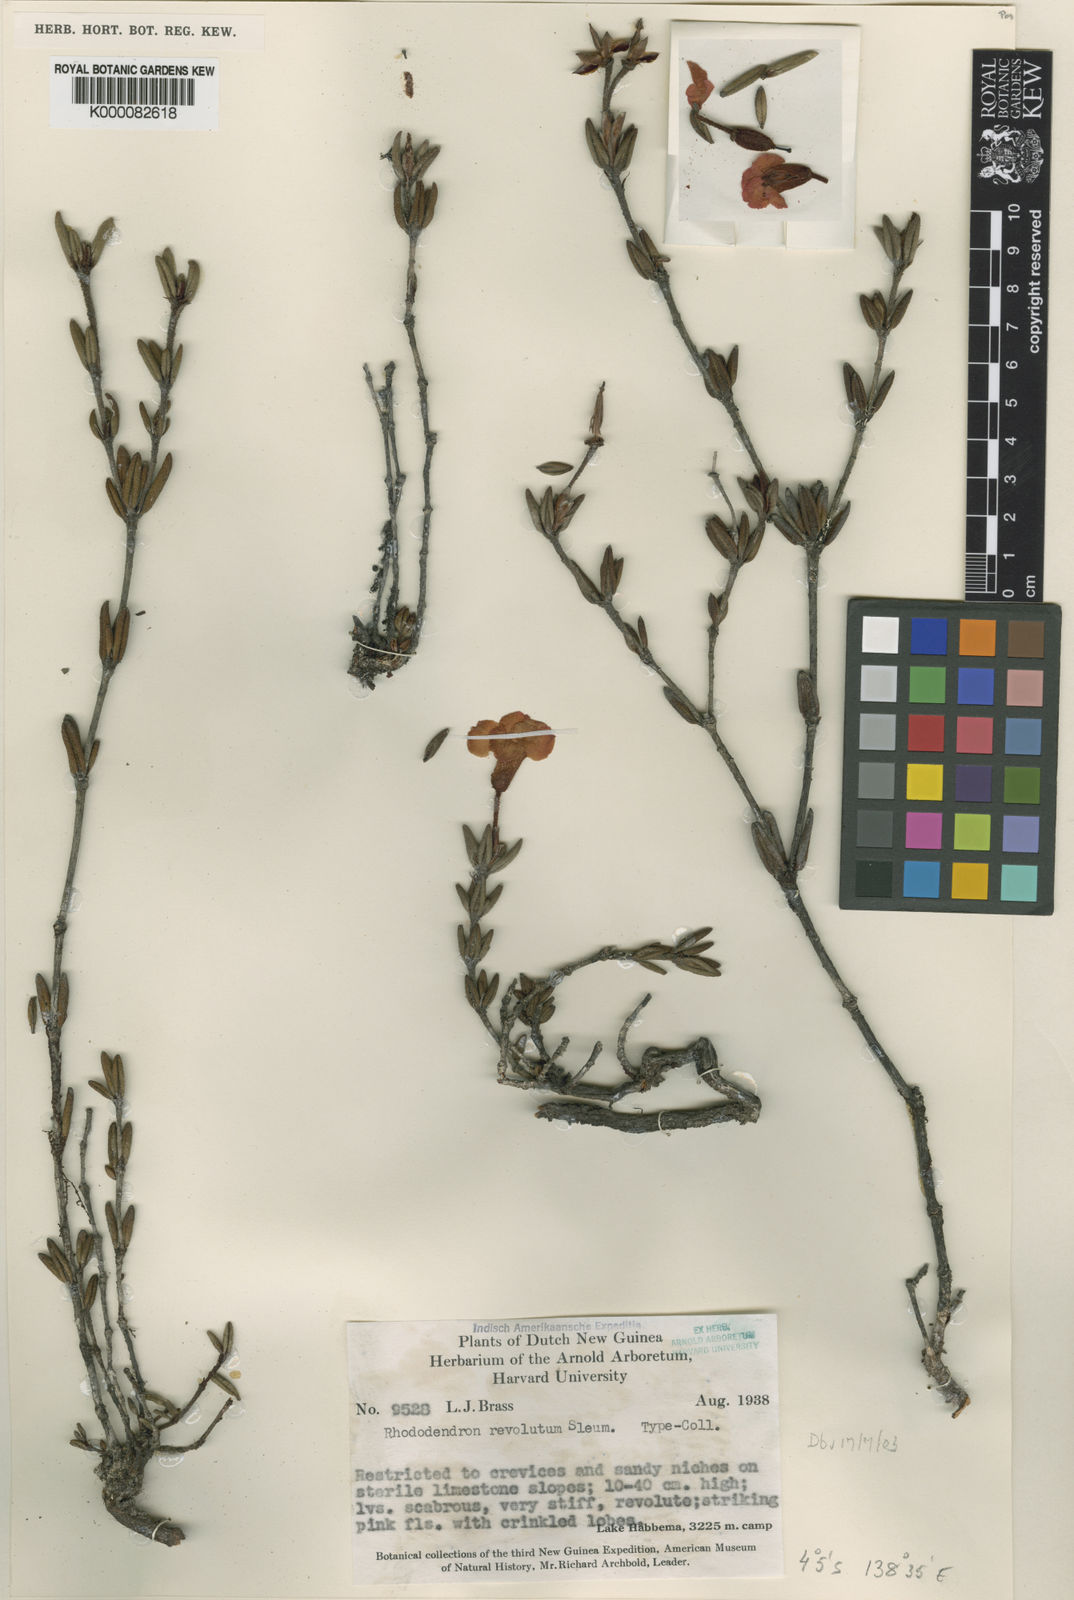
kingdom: Plantae
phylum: Tracheophyta
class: Magnoliopsida
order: Ericales
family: Ericaceae
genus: Rhododendron
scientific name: Rhododendron revolutum
